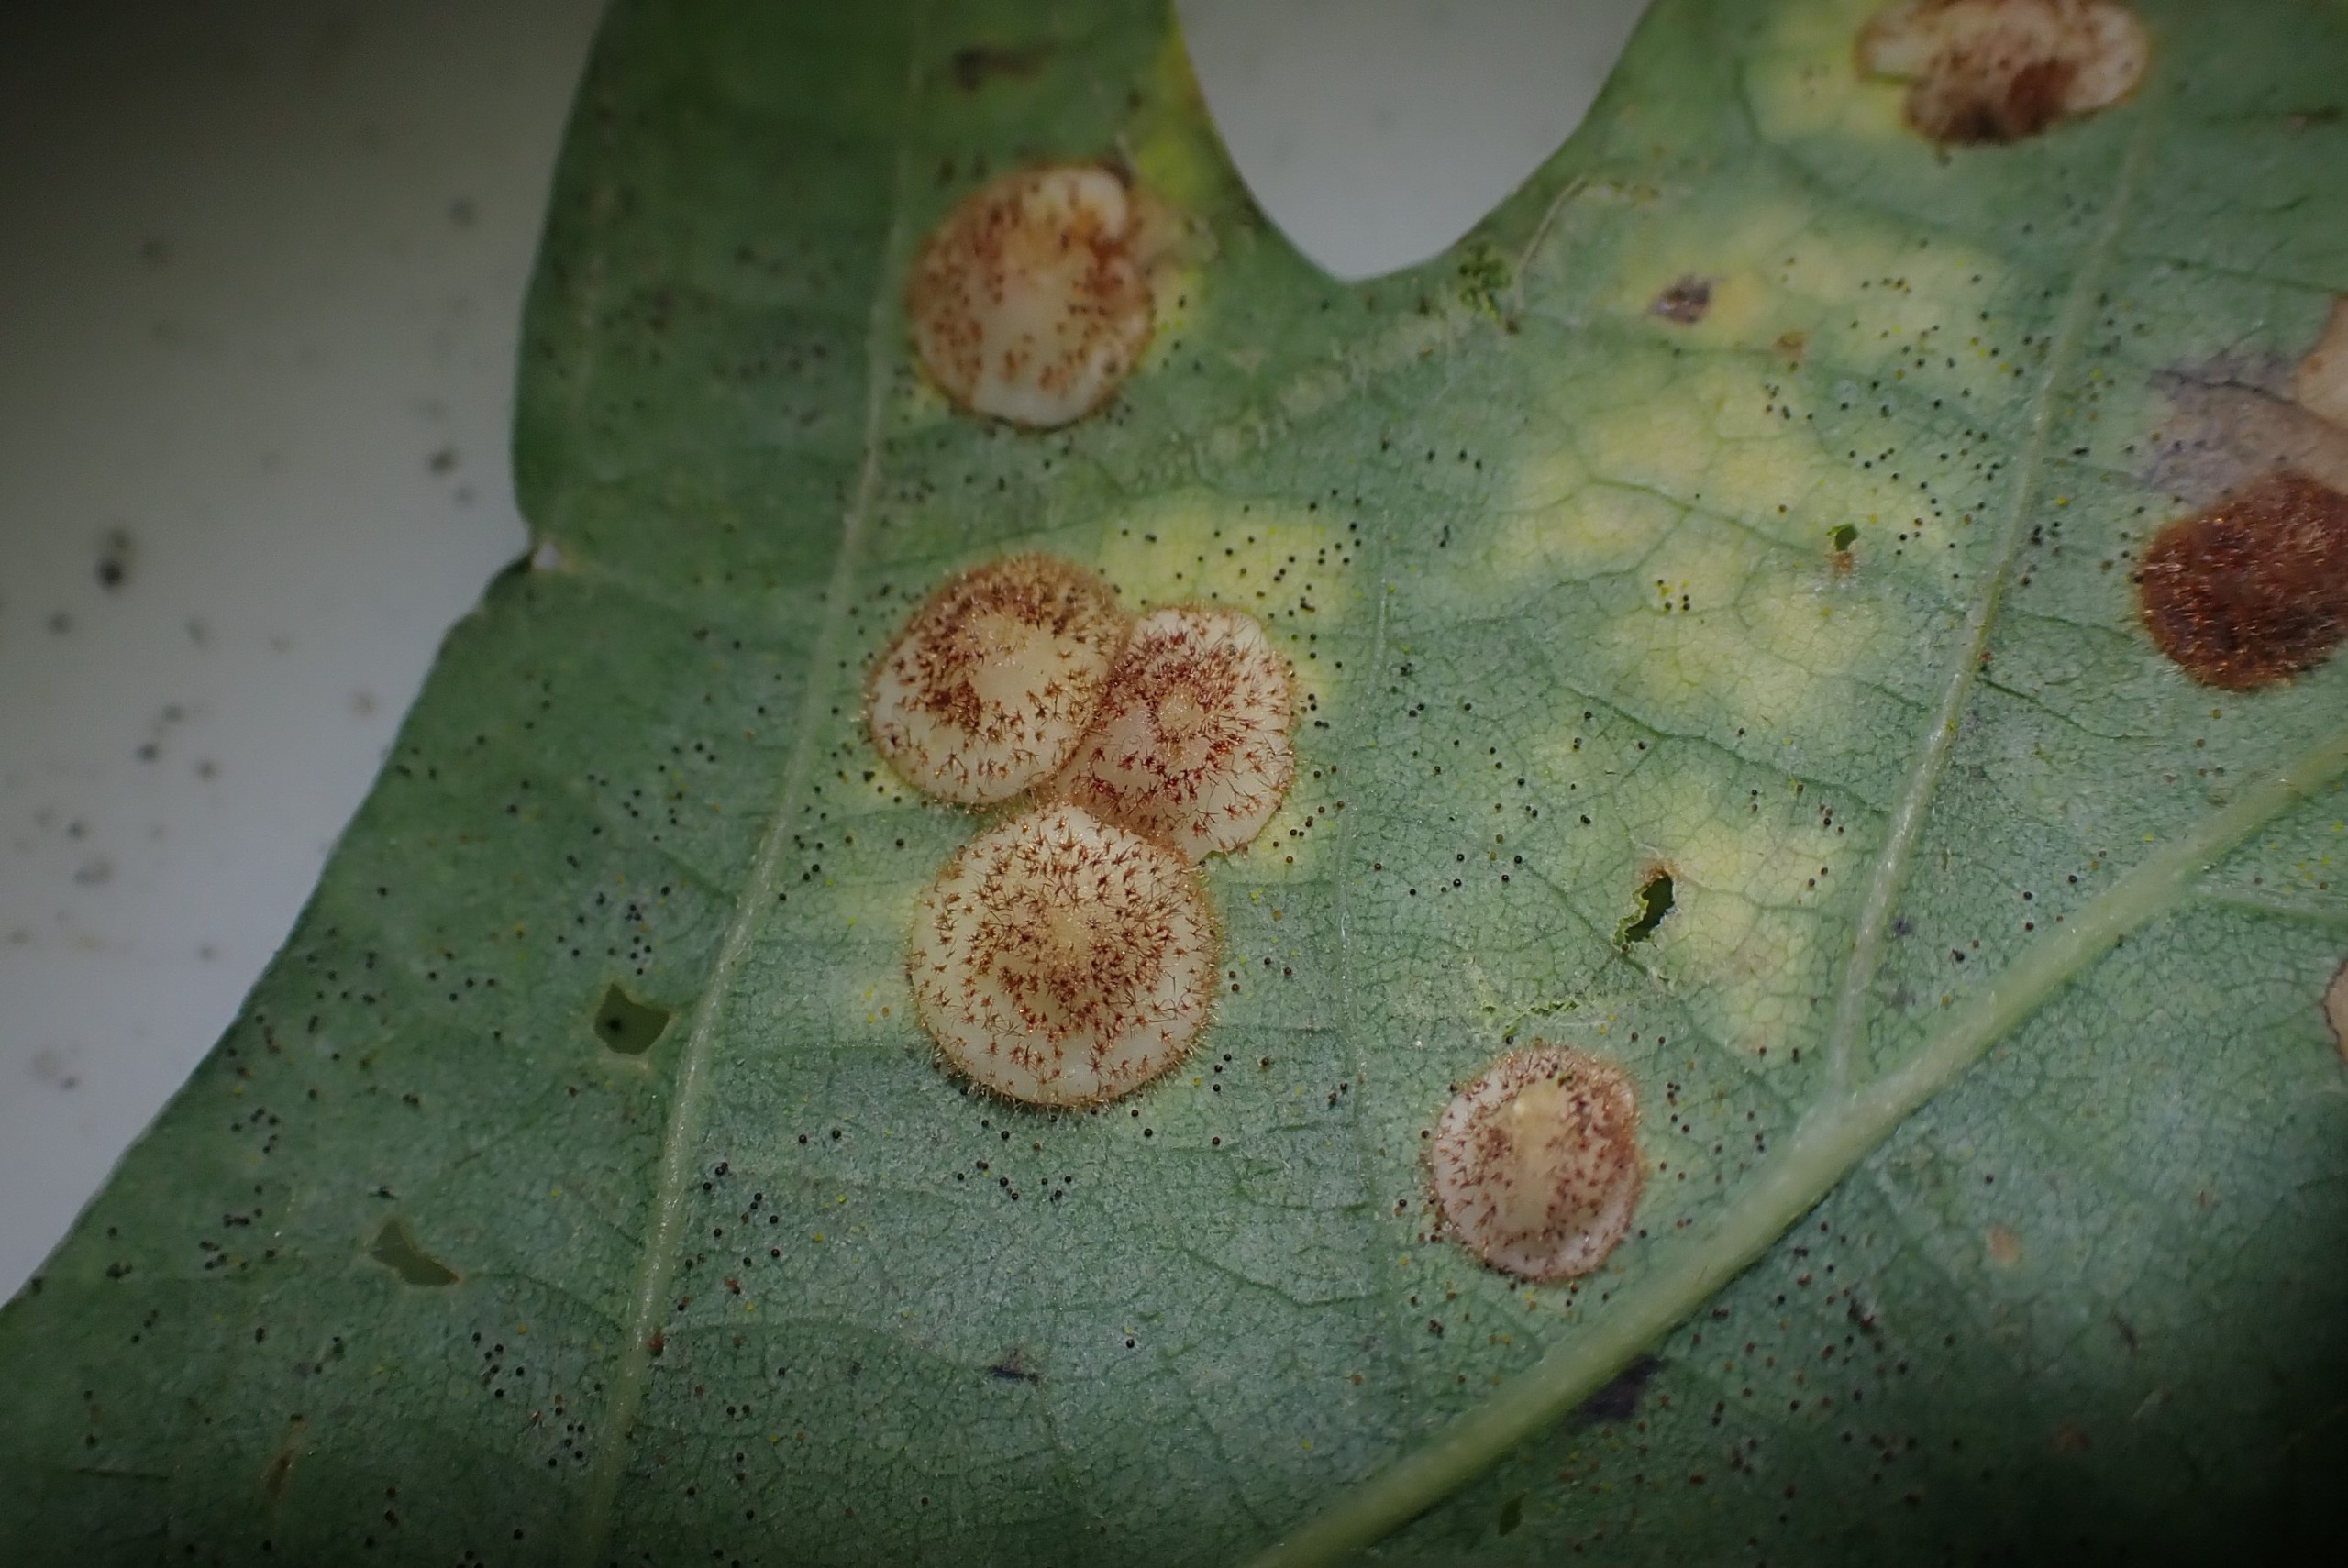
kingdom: Animalia
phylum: Arthropoda
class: Insecta
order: Hymenoptera
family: Cynipidae
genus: Neuroterus
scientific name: Neuroterus quercusbaccarum
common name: Linsegalhveps
